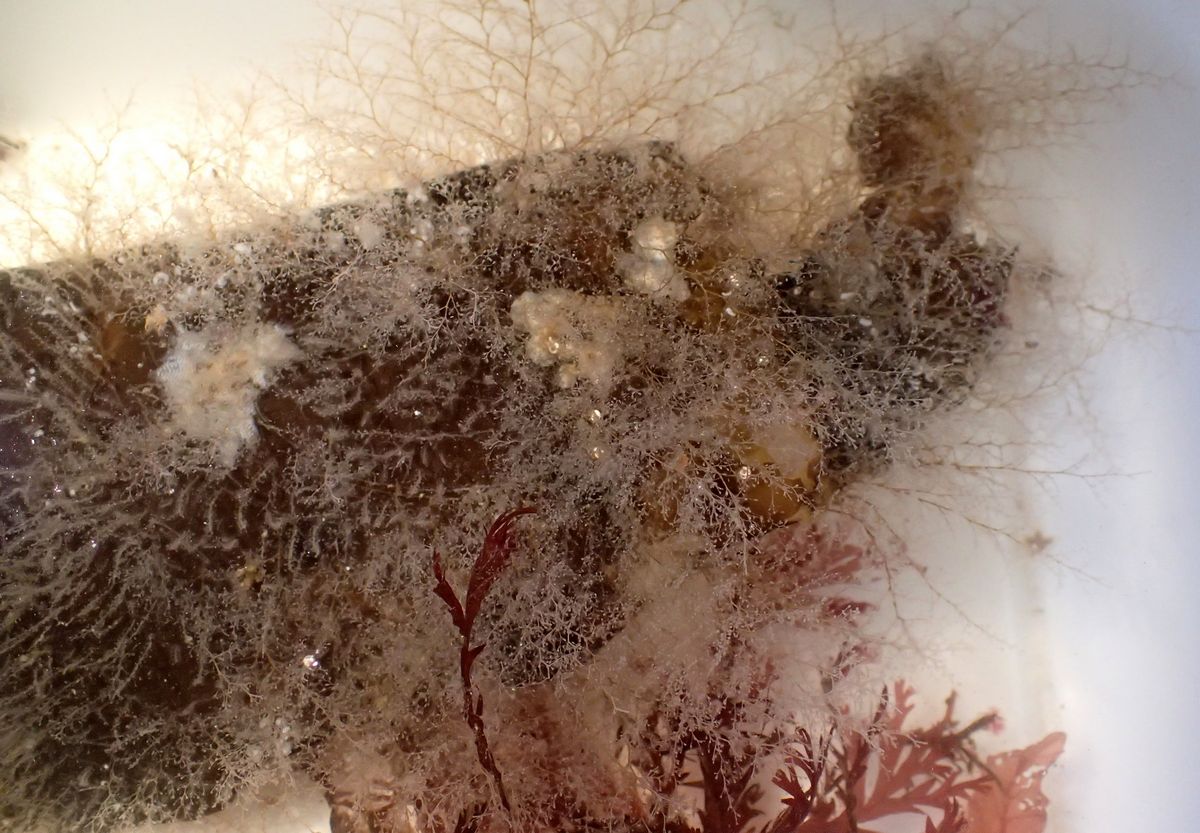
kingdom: Chromista
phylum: Ochrophyta
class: Phaeophyceae
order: Laminariales
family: Laminariaceae
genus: Saccharina
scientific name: Saccharina latissima
